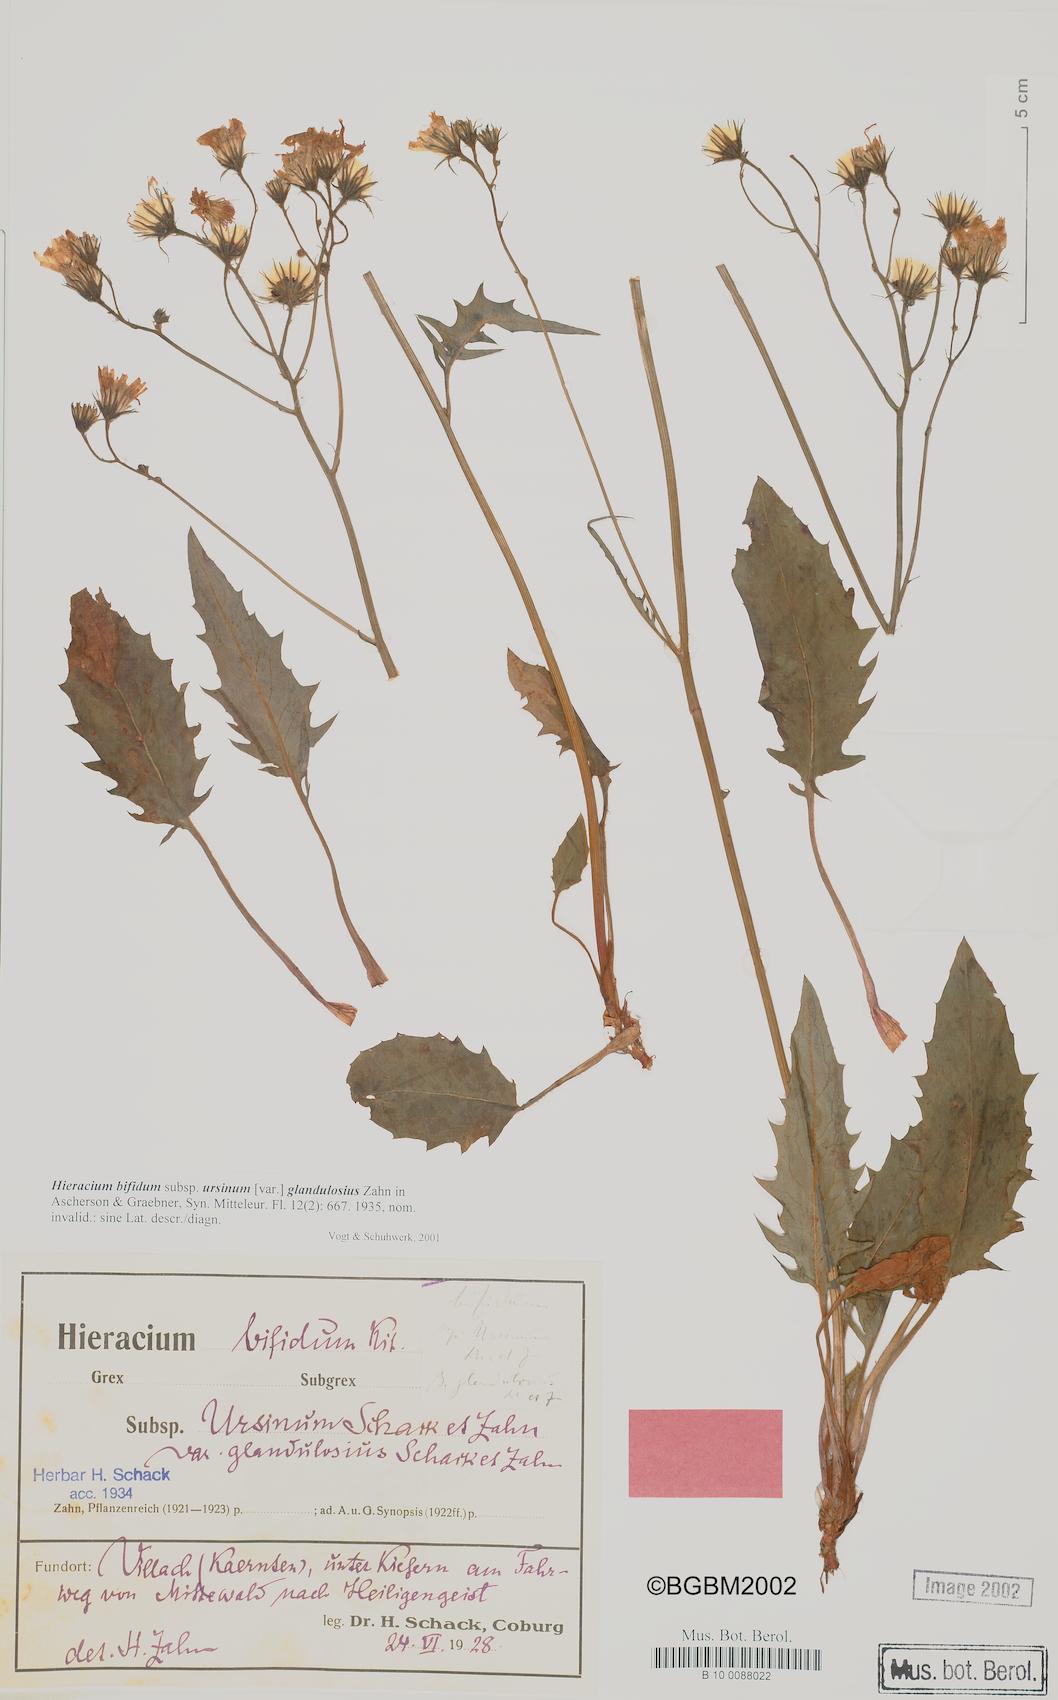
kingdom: Plantae
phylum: Tracheophyta
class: Magnoliopsida
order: Asterales
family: Asteraceae
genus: Hieracium
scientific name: Hieracium bifidum
